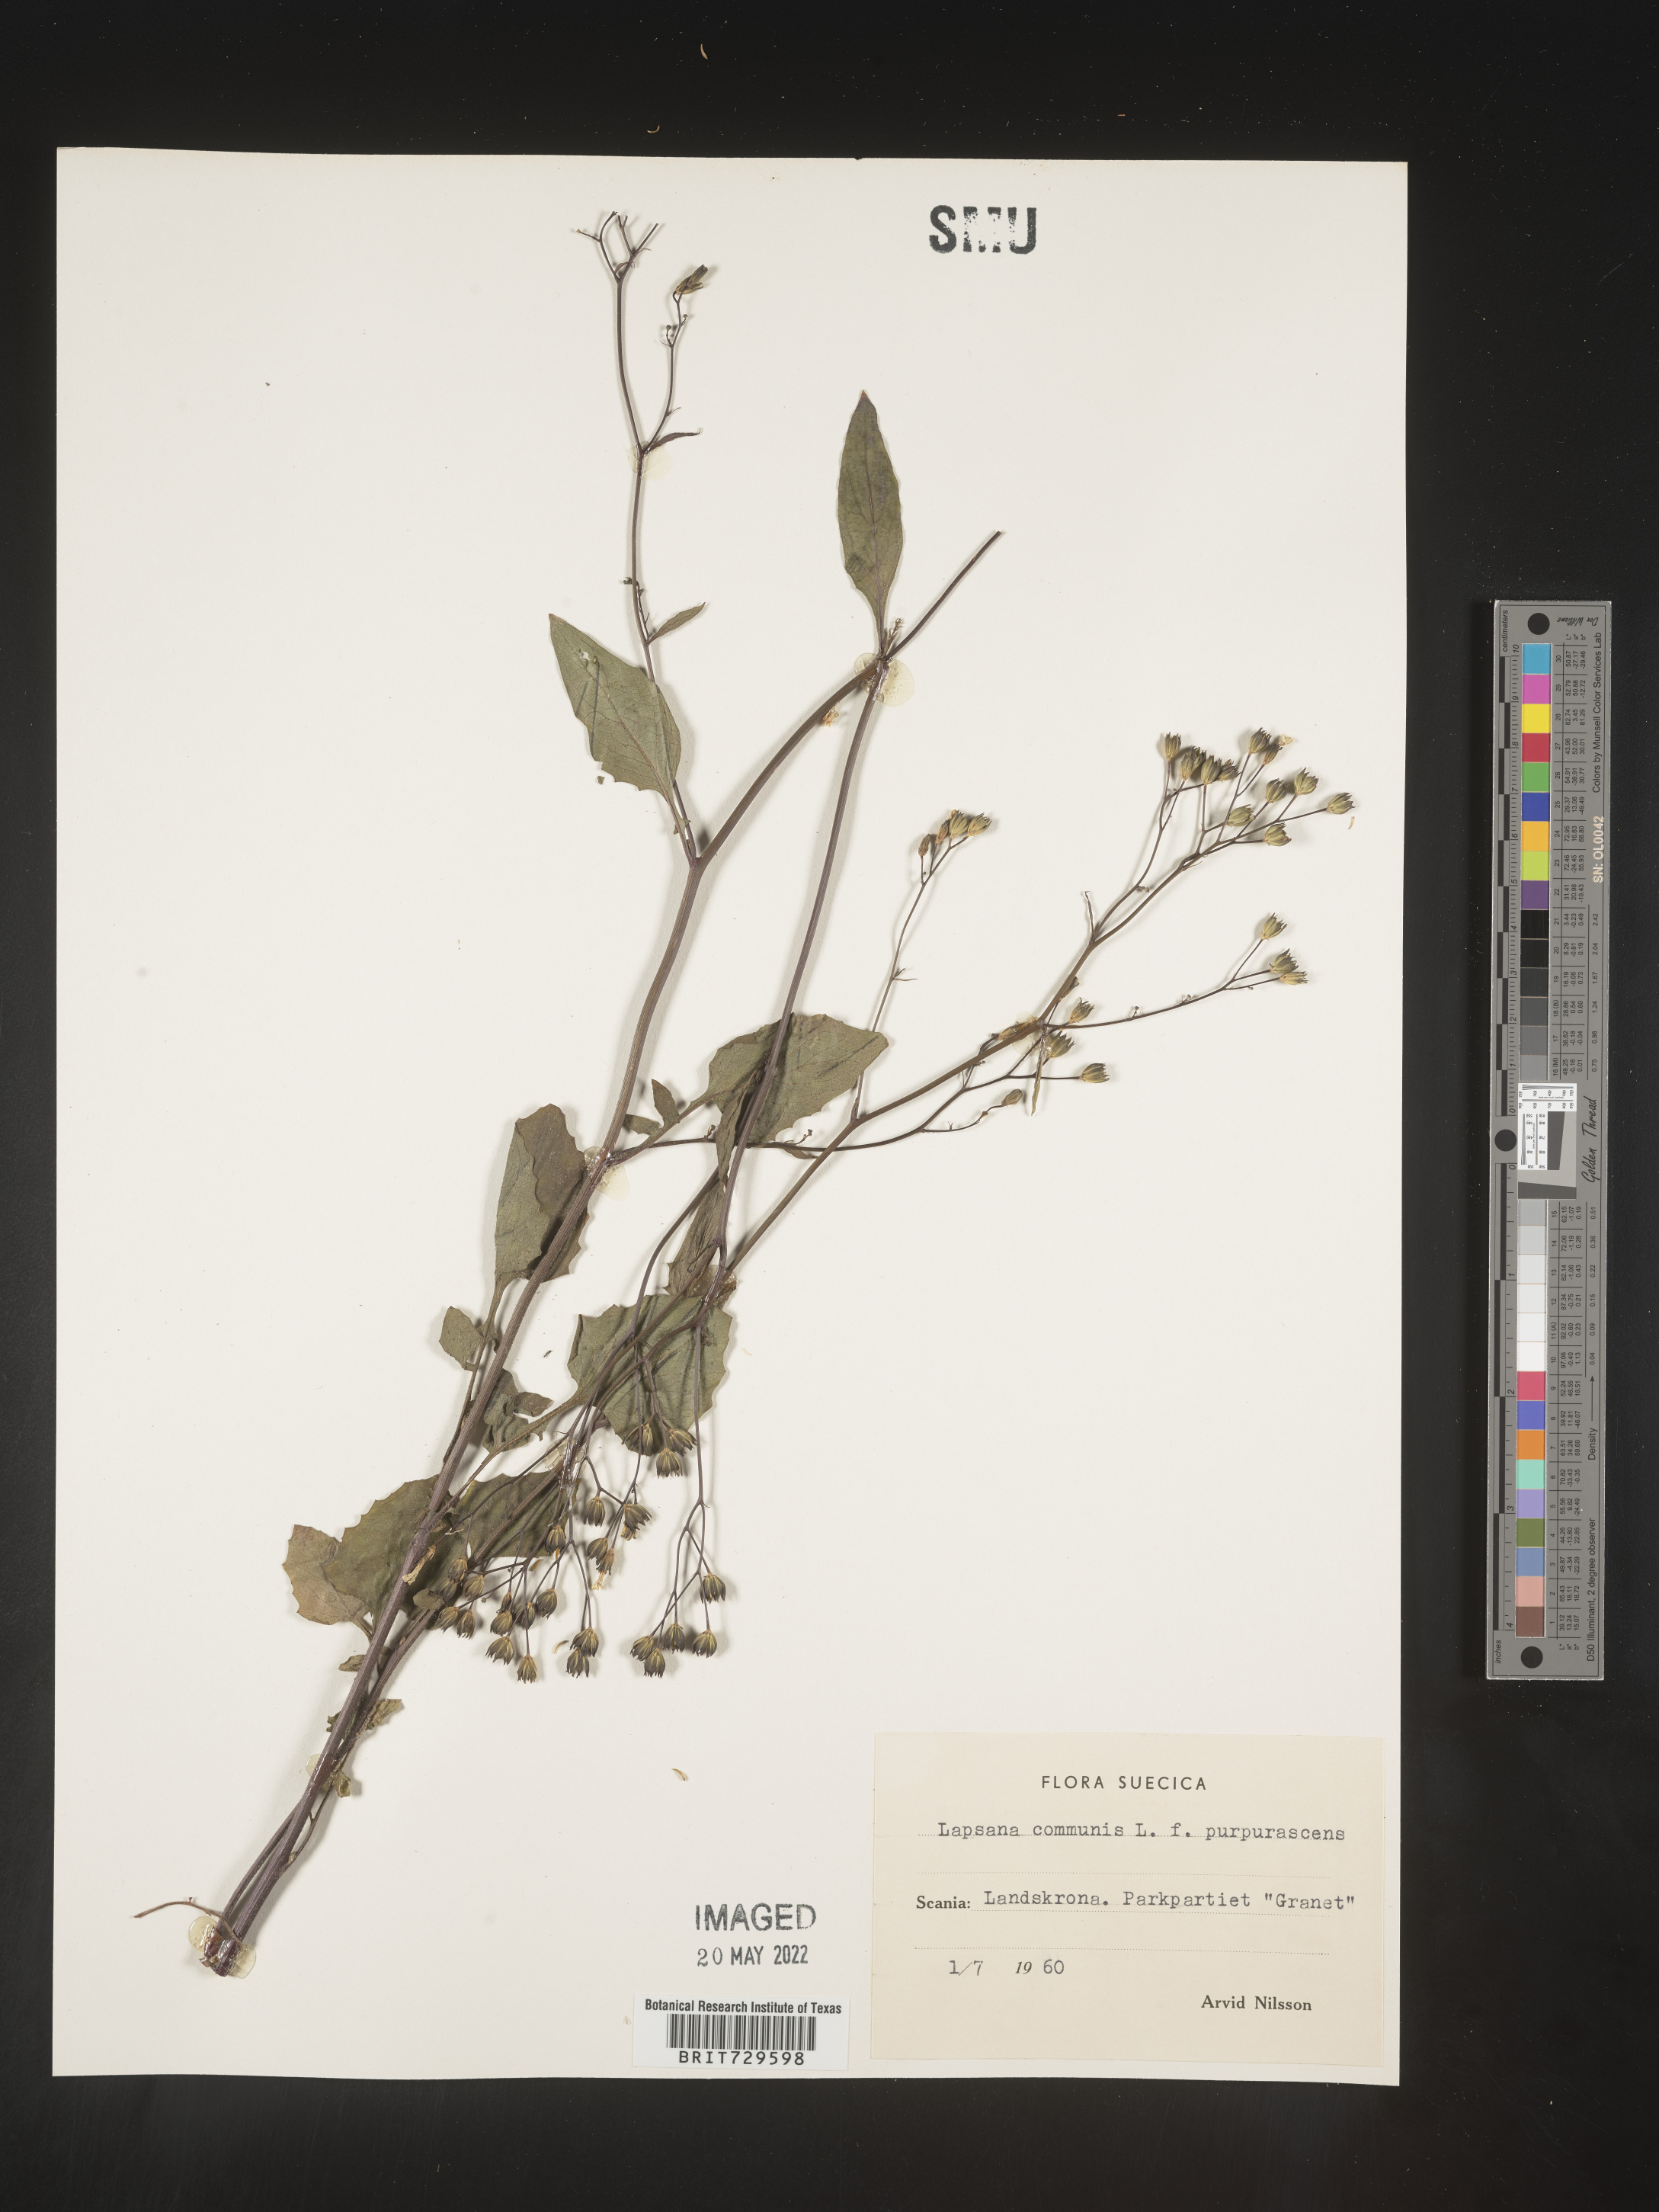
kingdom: Plantae
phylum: Tracheophyta
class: Magnoliopsida
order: Asterales
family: Asteraceae
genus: Lapsana
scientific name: Lapsana
